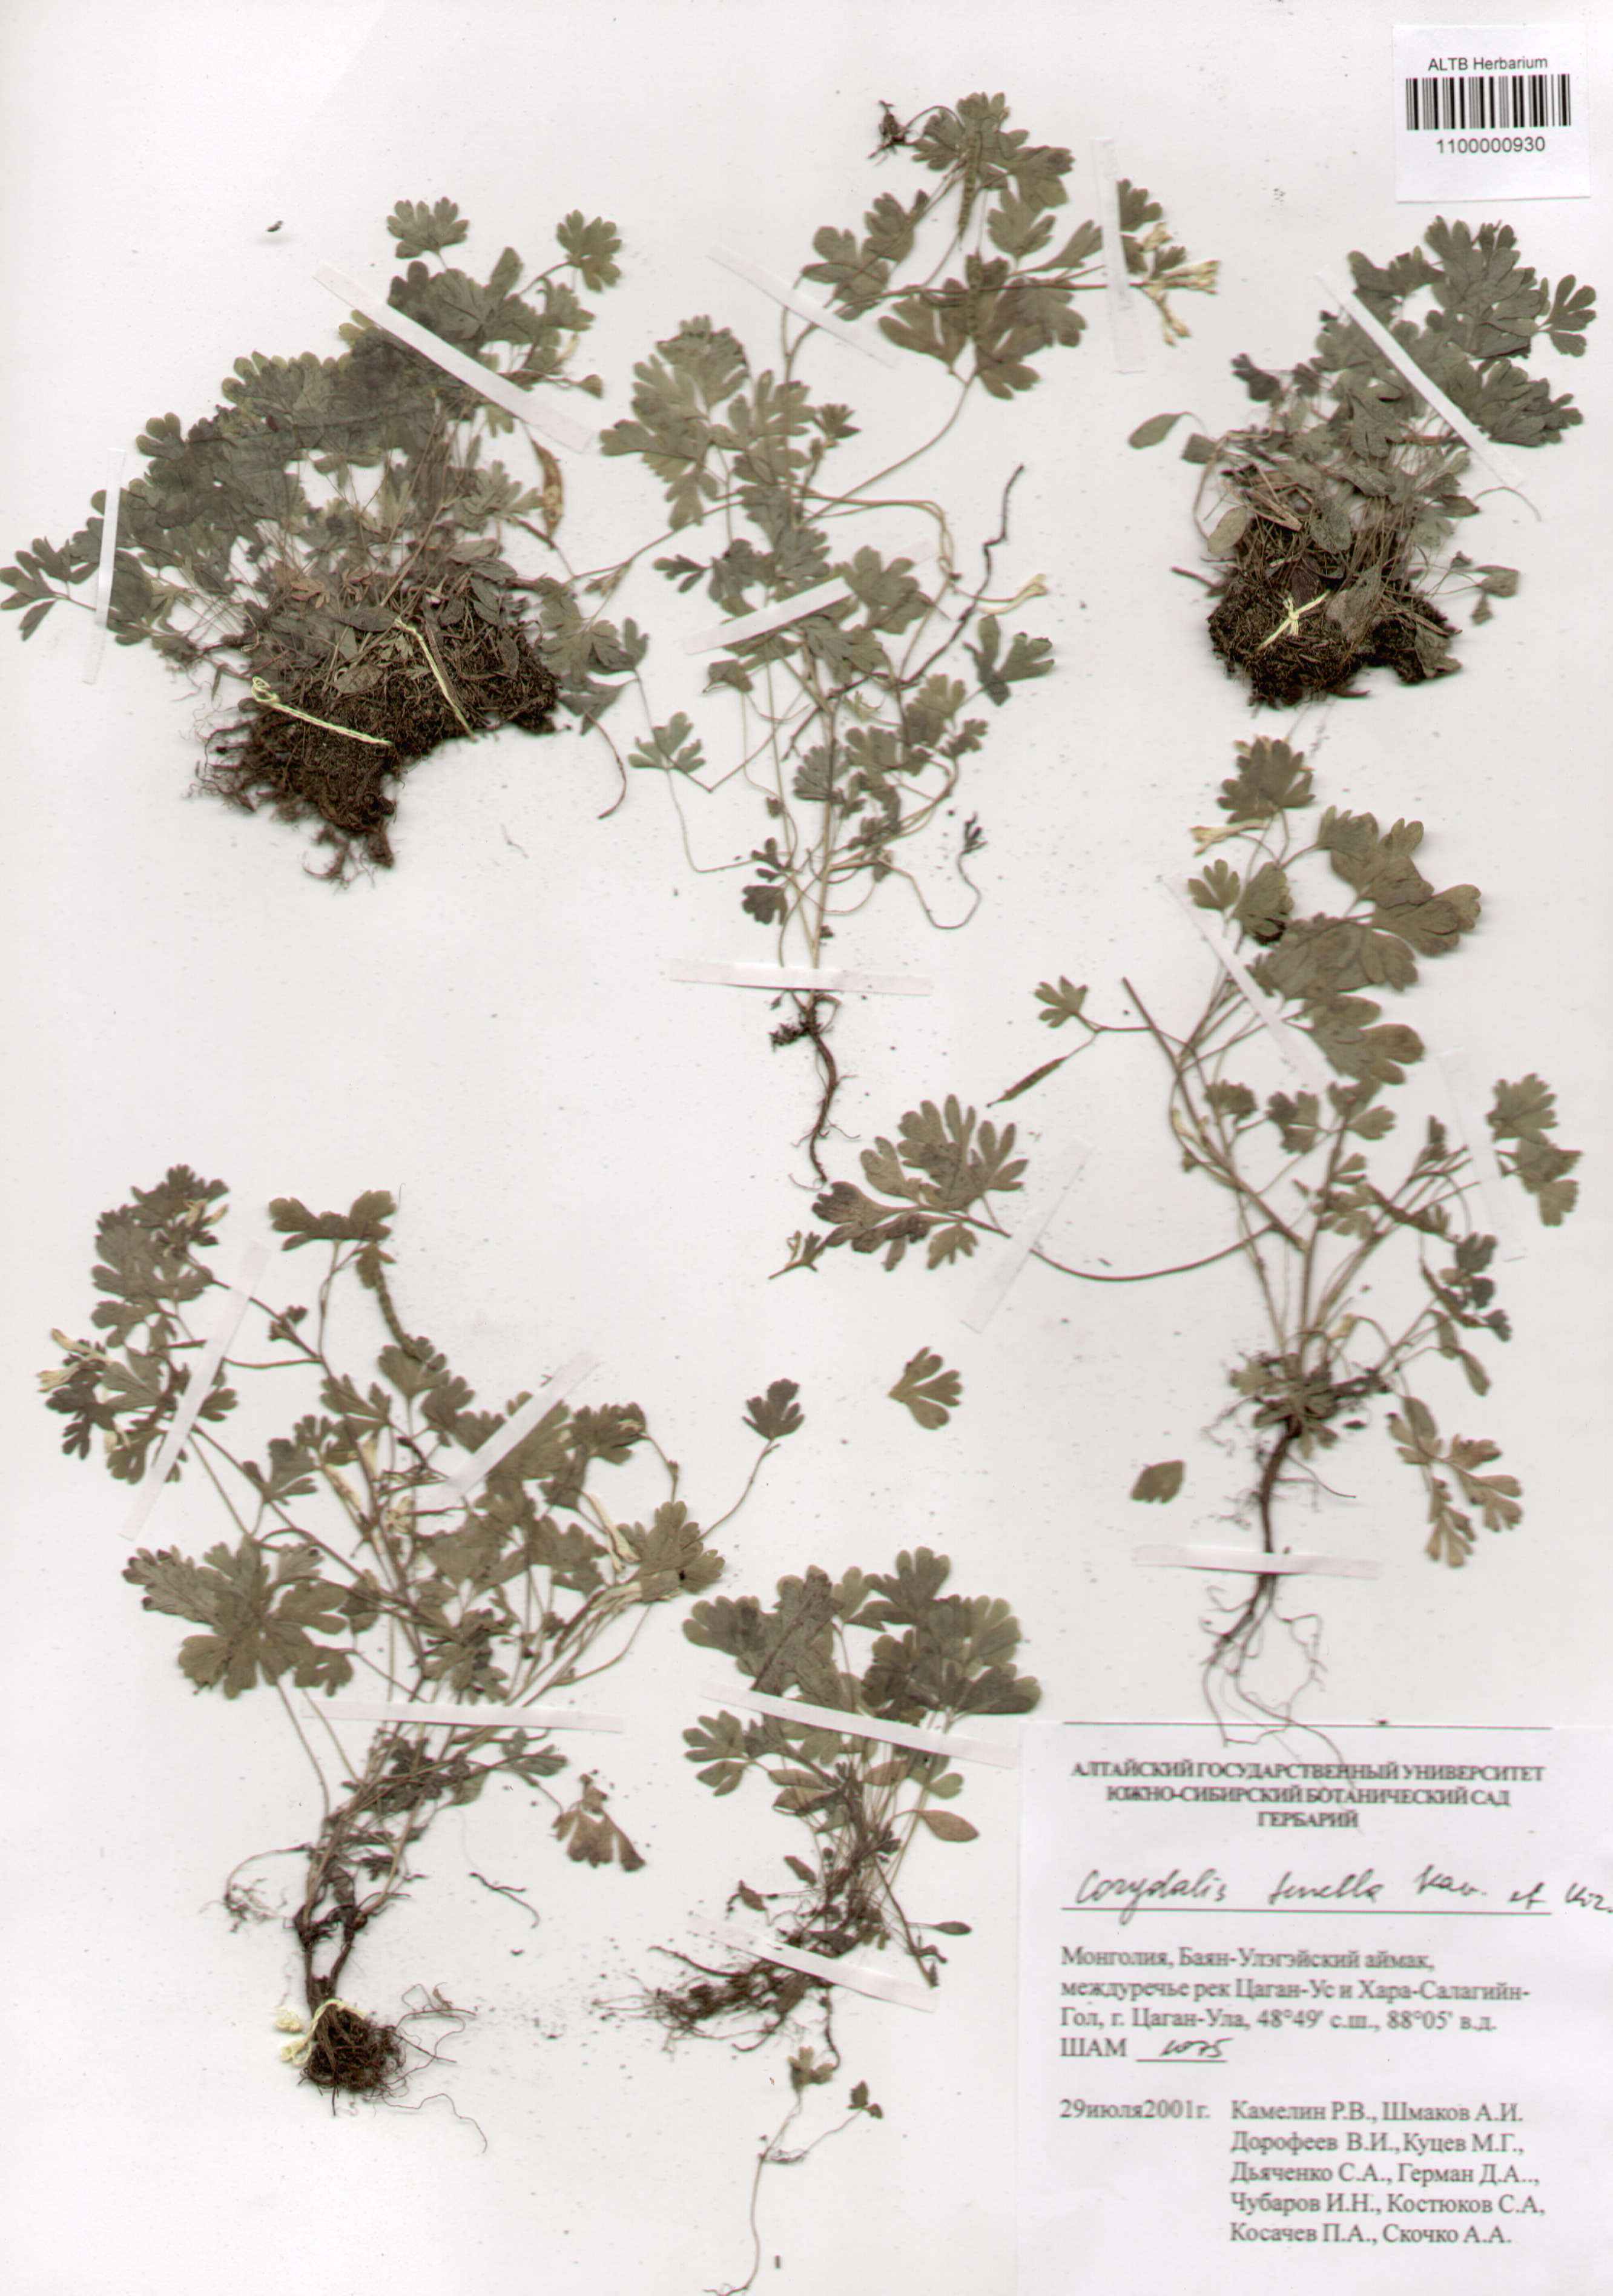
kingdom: Plantae
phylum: Tracheophyta
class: Magnoliopsida
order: Ranunculales
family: Papaveraceae
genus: Corydalis
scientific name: Corydalis inconspicua
